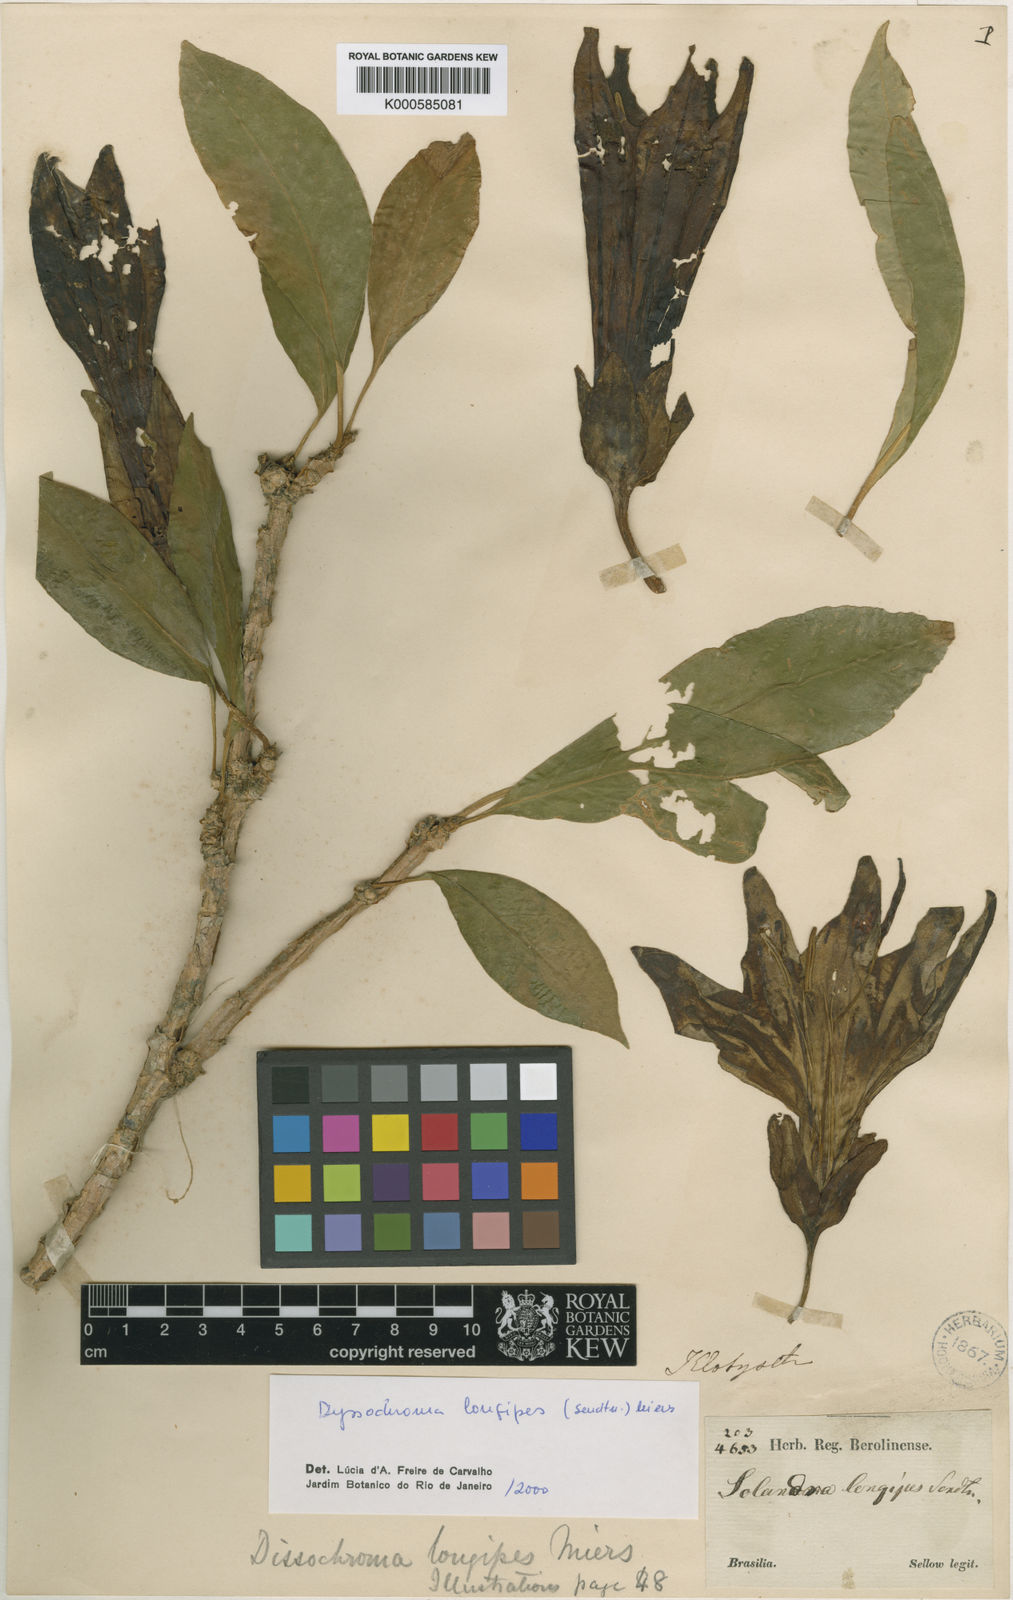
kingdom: Plantae
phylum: Tracheophyta
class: Magnoliopsida
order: Solanales
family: Solanaceae
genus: Dyssochroma
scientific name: Dyssochroma longipes
